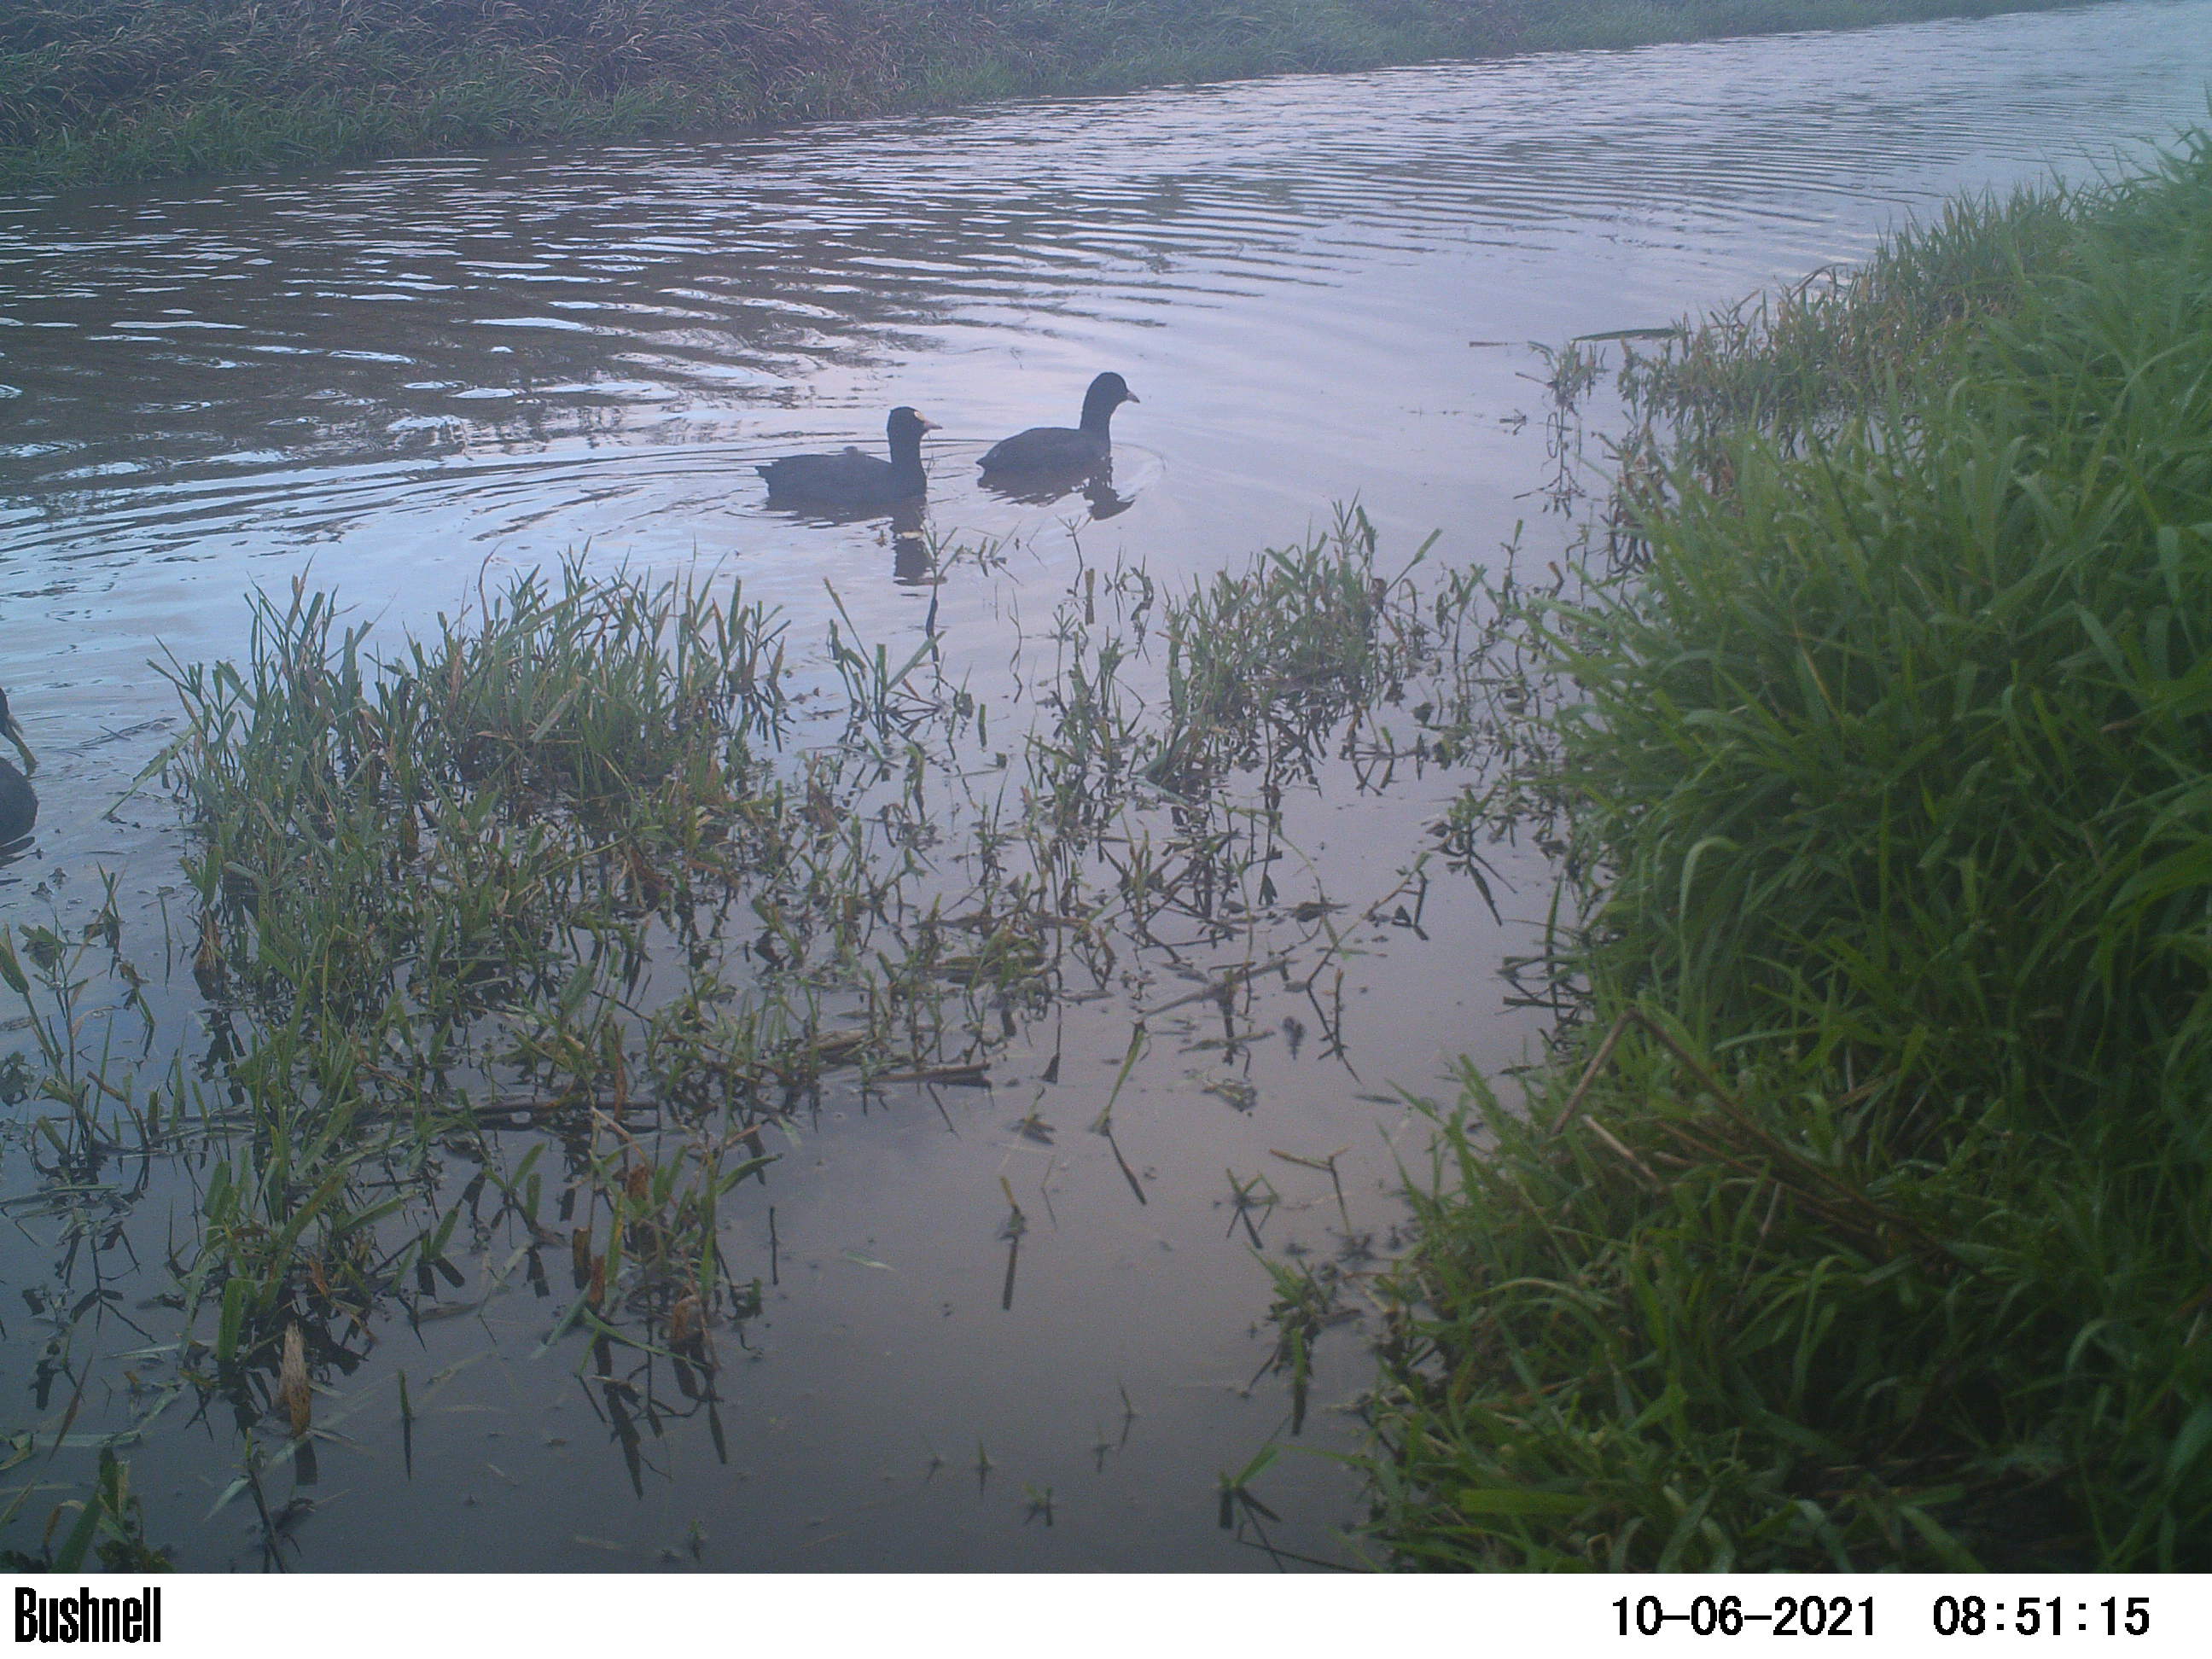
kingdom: Animalia
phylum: Chordata
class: Aves
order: Gruiformes
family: Rallidae
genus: Fulica
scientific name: Fulica atra
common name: Eurasian coot
